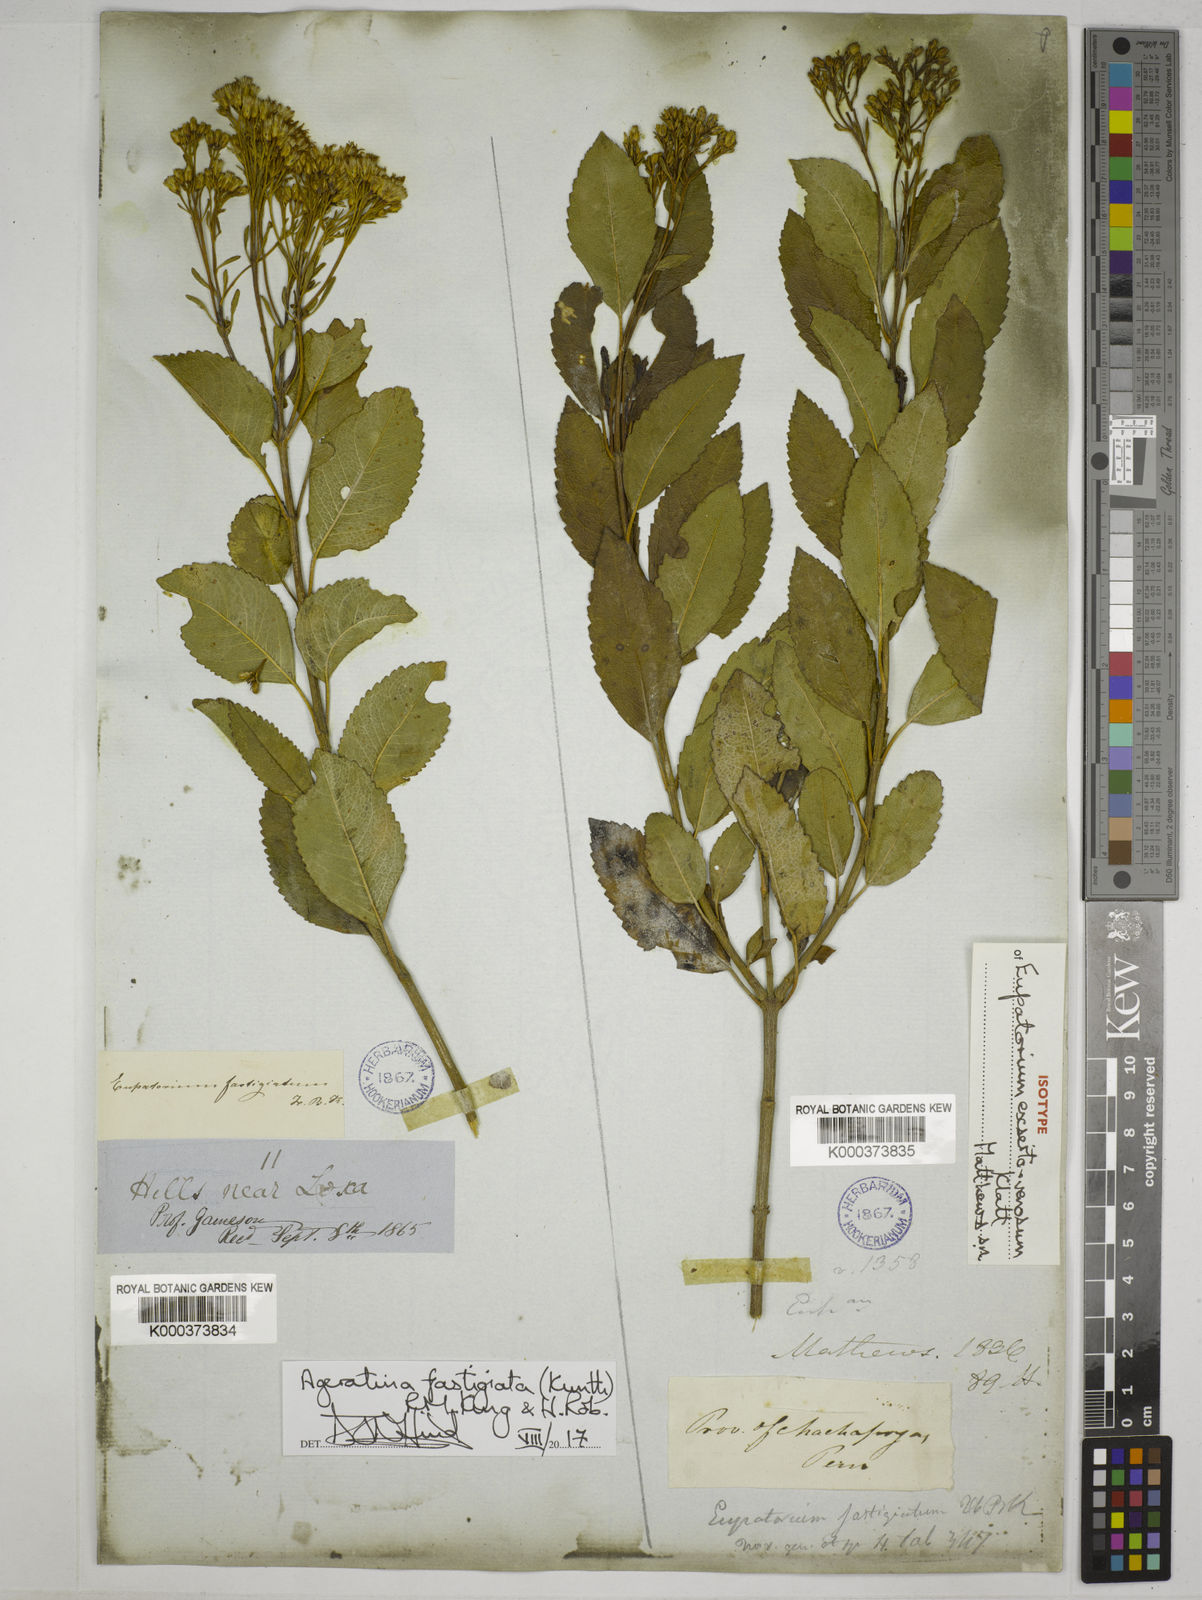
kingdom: Plantae
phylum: Tracheophyta
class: Magnoliopsida
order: Asterales
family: Asteraceae
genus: Ageratina
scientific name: Ageratina fastigiata
